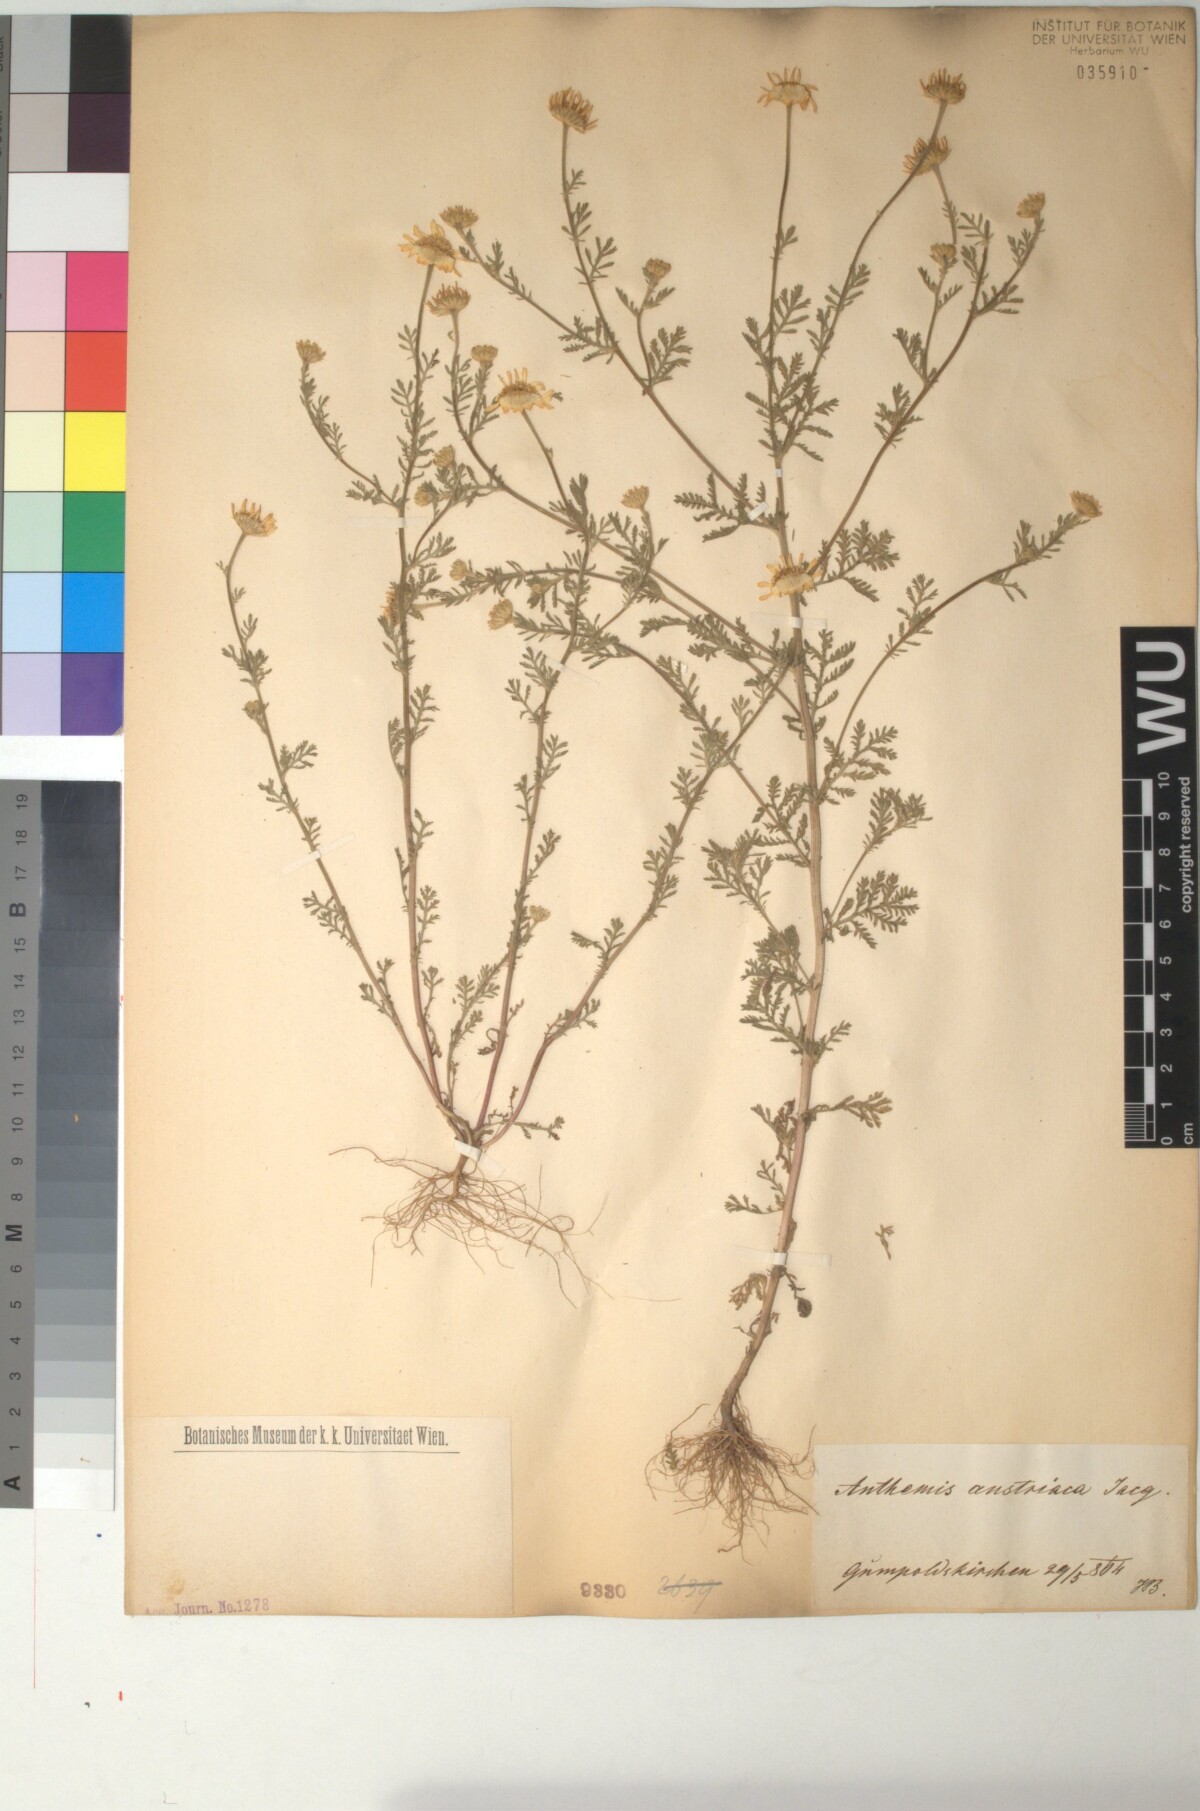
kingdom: Plantae
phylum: Tracheophyta
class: Magnoliopsida
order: Asterales
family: Asteraceae
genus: Cota
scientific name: Cota austriaca
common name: Austrian chamomile
